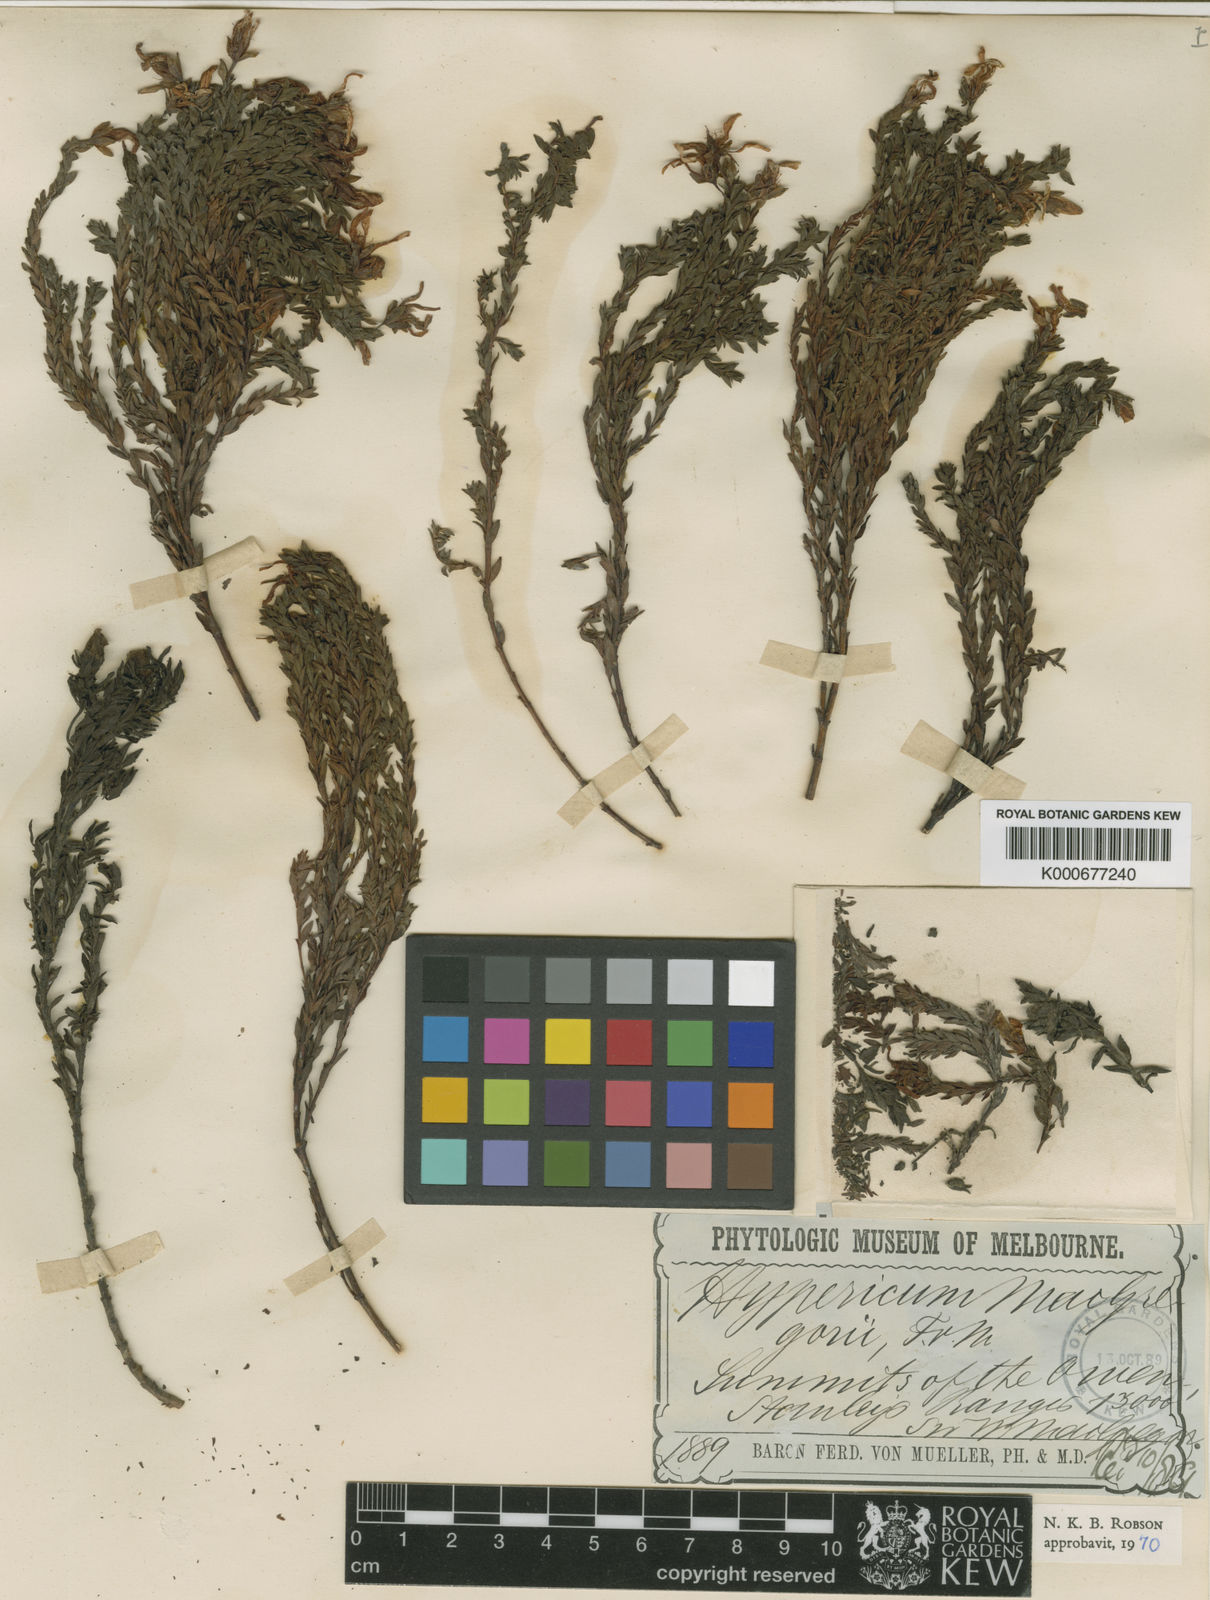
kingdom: Plantae
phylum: Tracheophyta
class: Magnoliopsida
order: Malpighiales
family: Hypericaceae
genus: Hypericum
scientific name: Hypericum macgregorii
